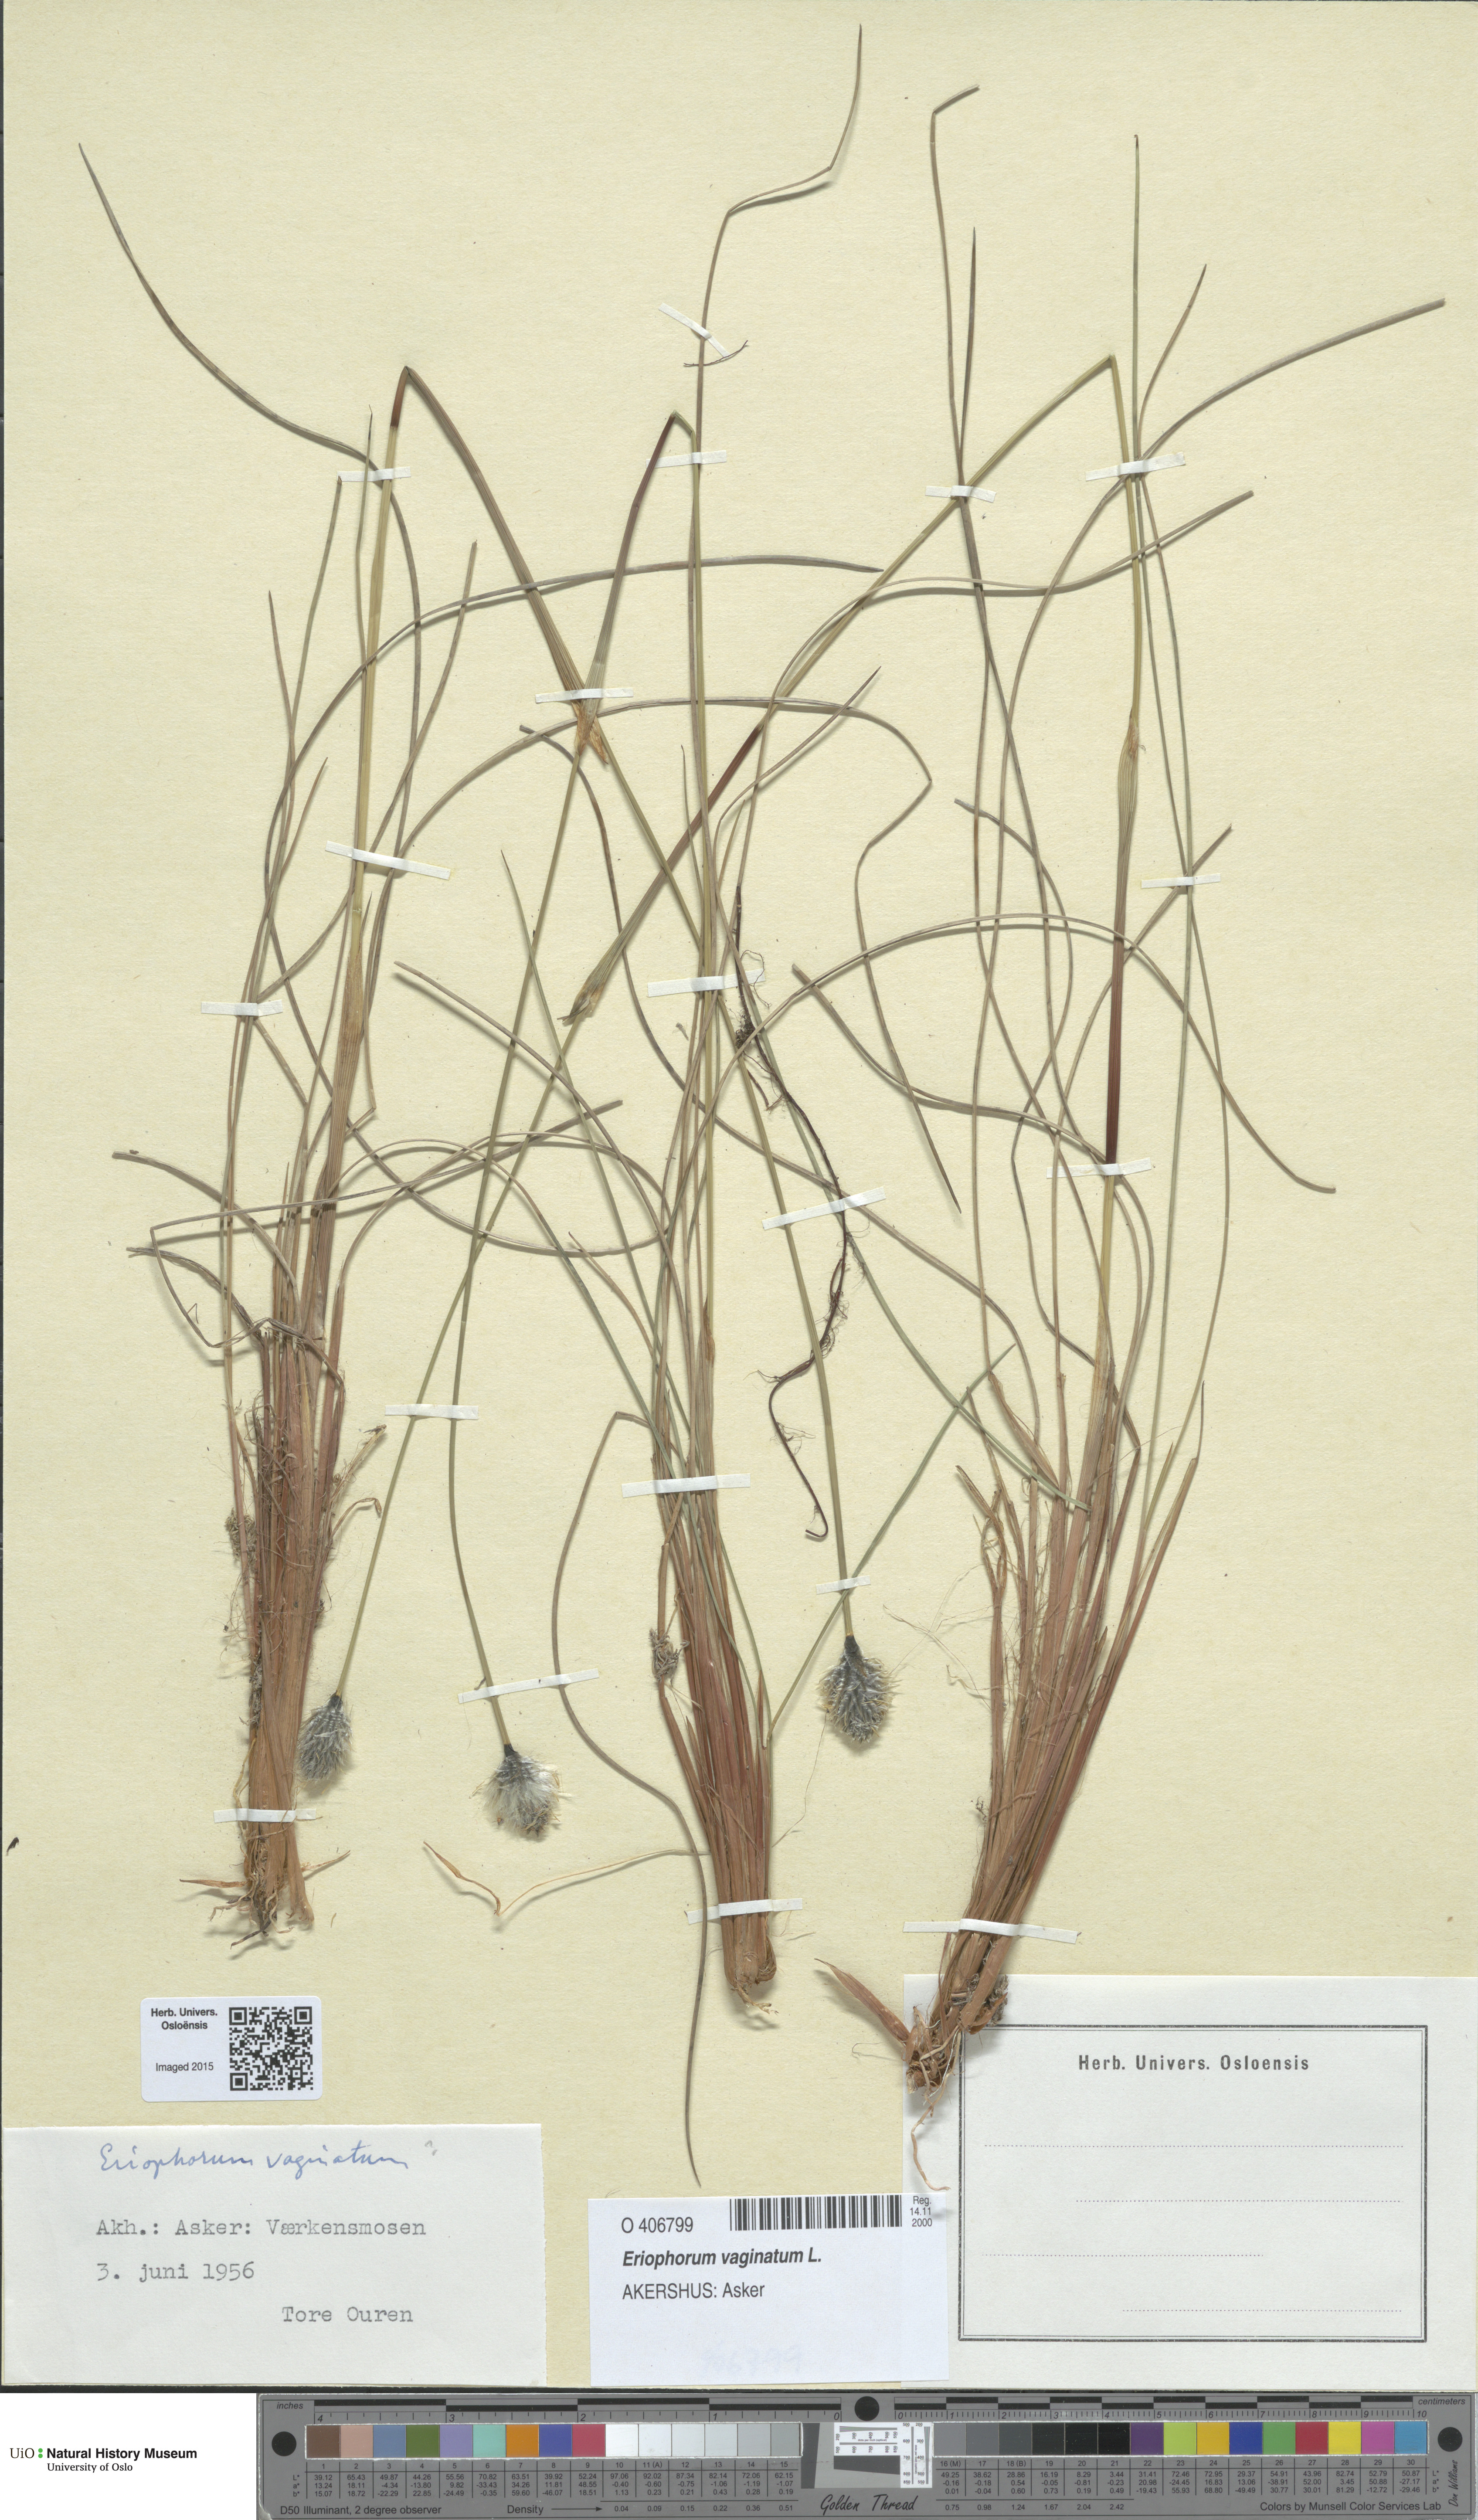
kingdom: Plantae
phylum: Tracheophyta
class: Liliopsida
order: Poales
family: Cyperaceae
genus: Eriophorum
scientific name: Eriophorum vaginatum
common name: Hare's-tail cottongrass
